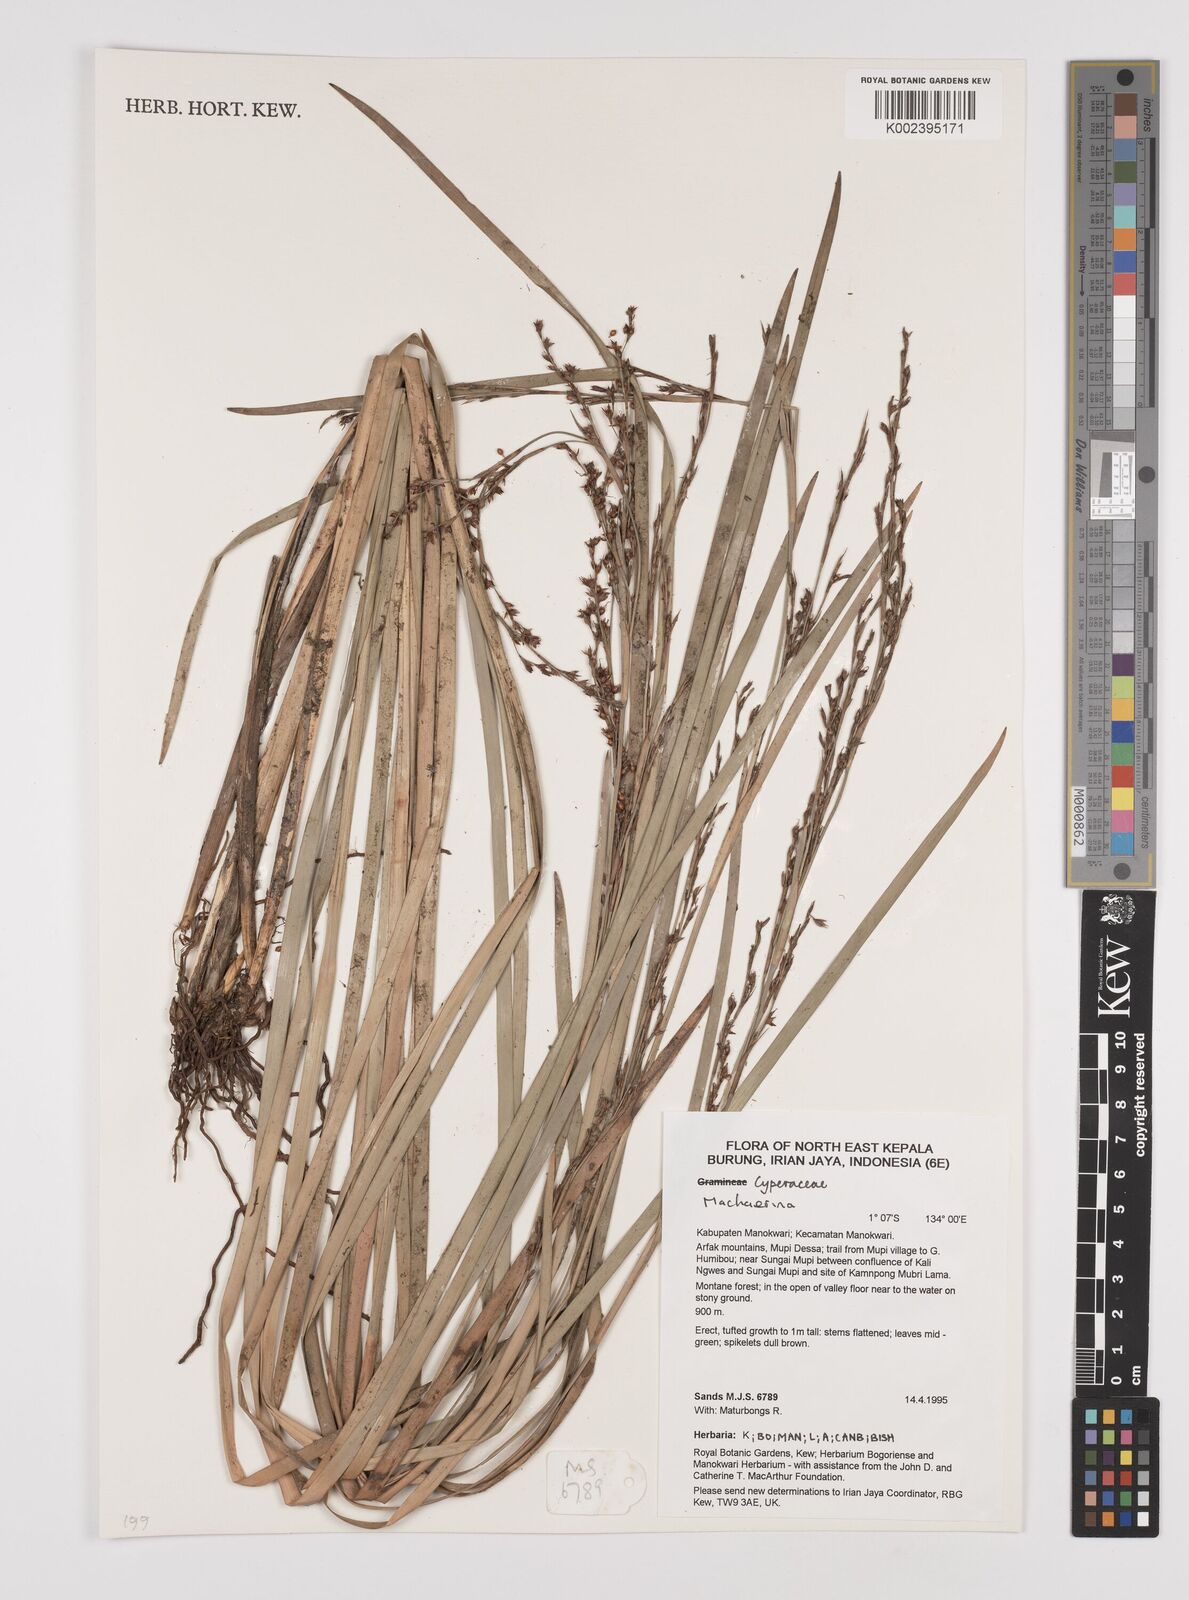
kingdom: Plantae
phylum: Tracheophyta
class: Liliopsida
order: Poales
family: Cyperaceae
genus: Machaerina
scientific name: Machaerina
